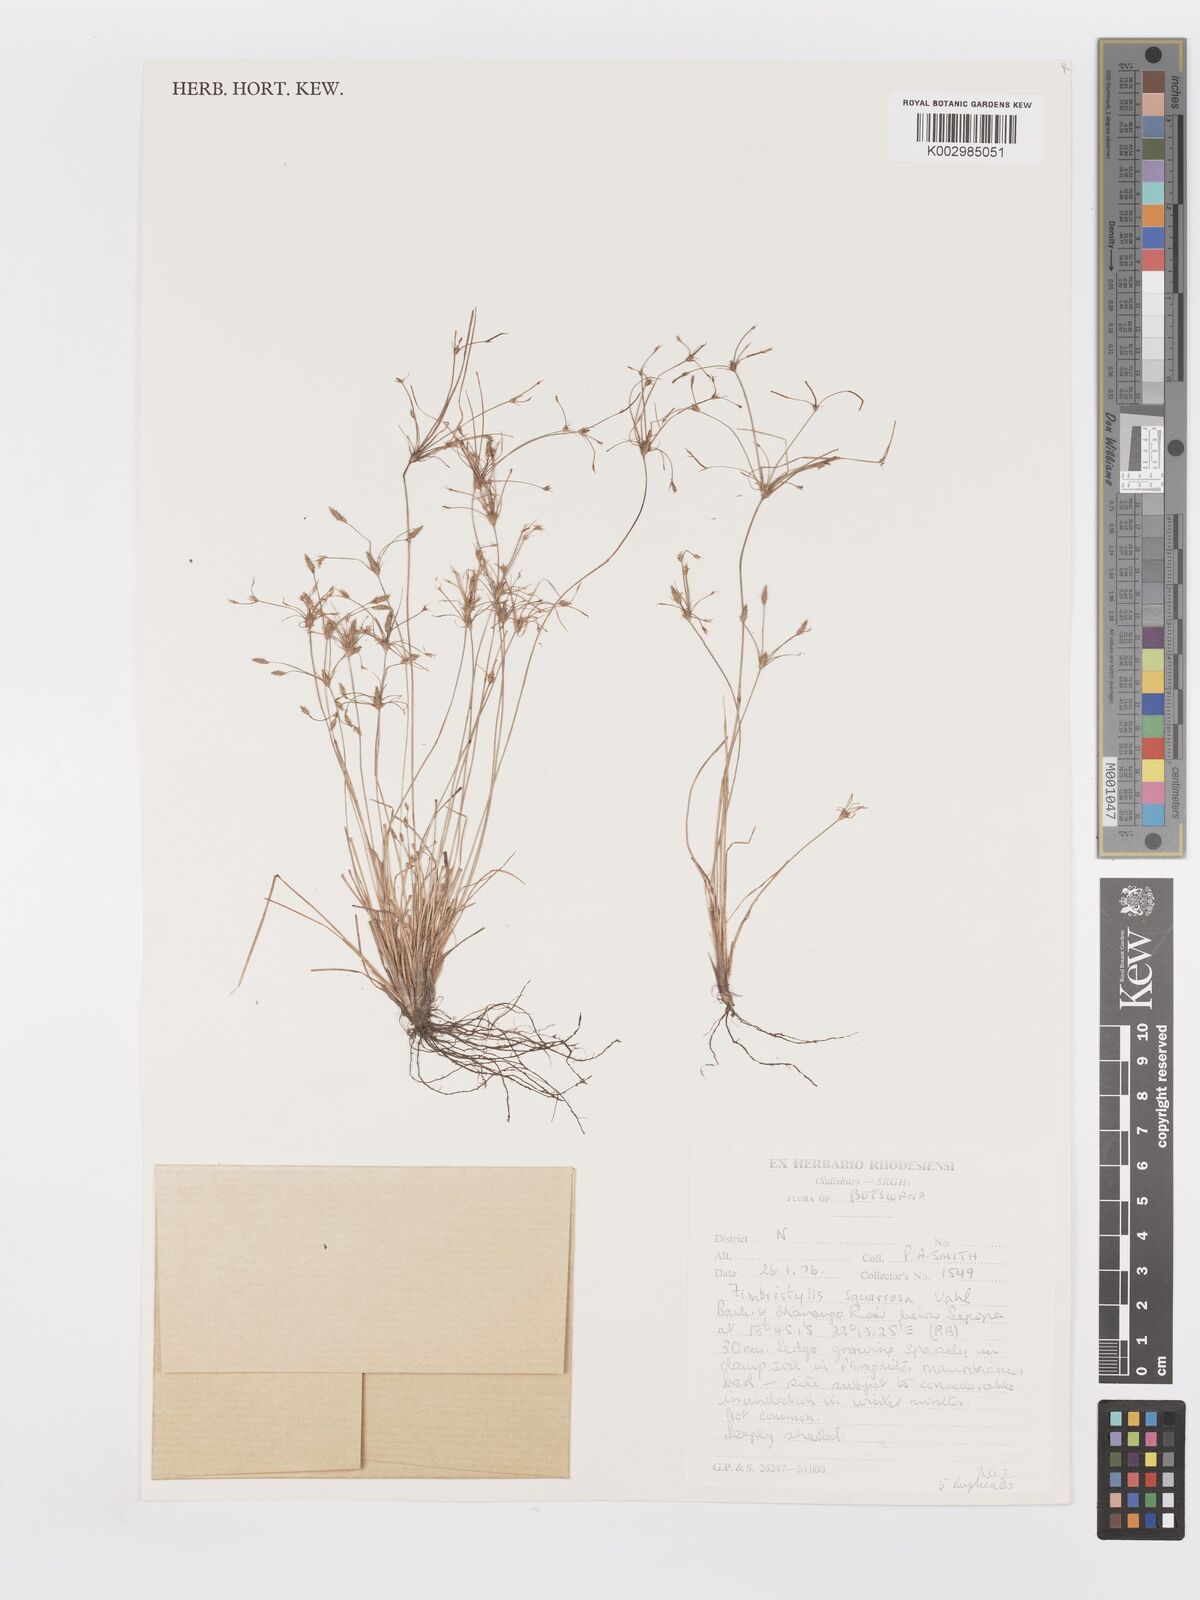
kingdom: Plantae
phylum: Tracheophyta
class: Liliopsida
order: Poales
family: Cyperaceae
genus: Fimbristylis
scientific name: Fimbristylis squarrosa
